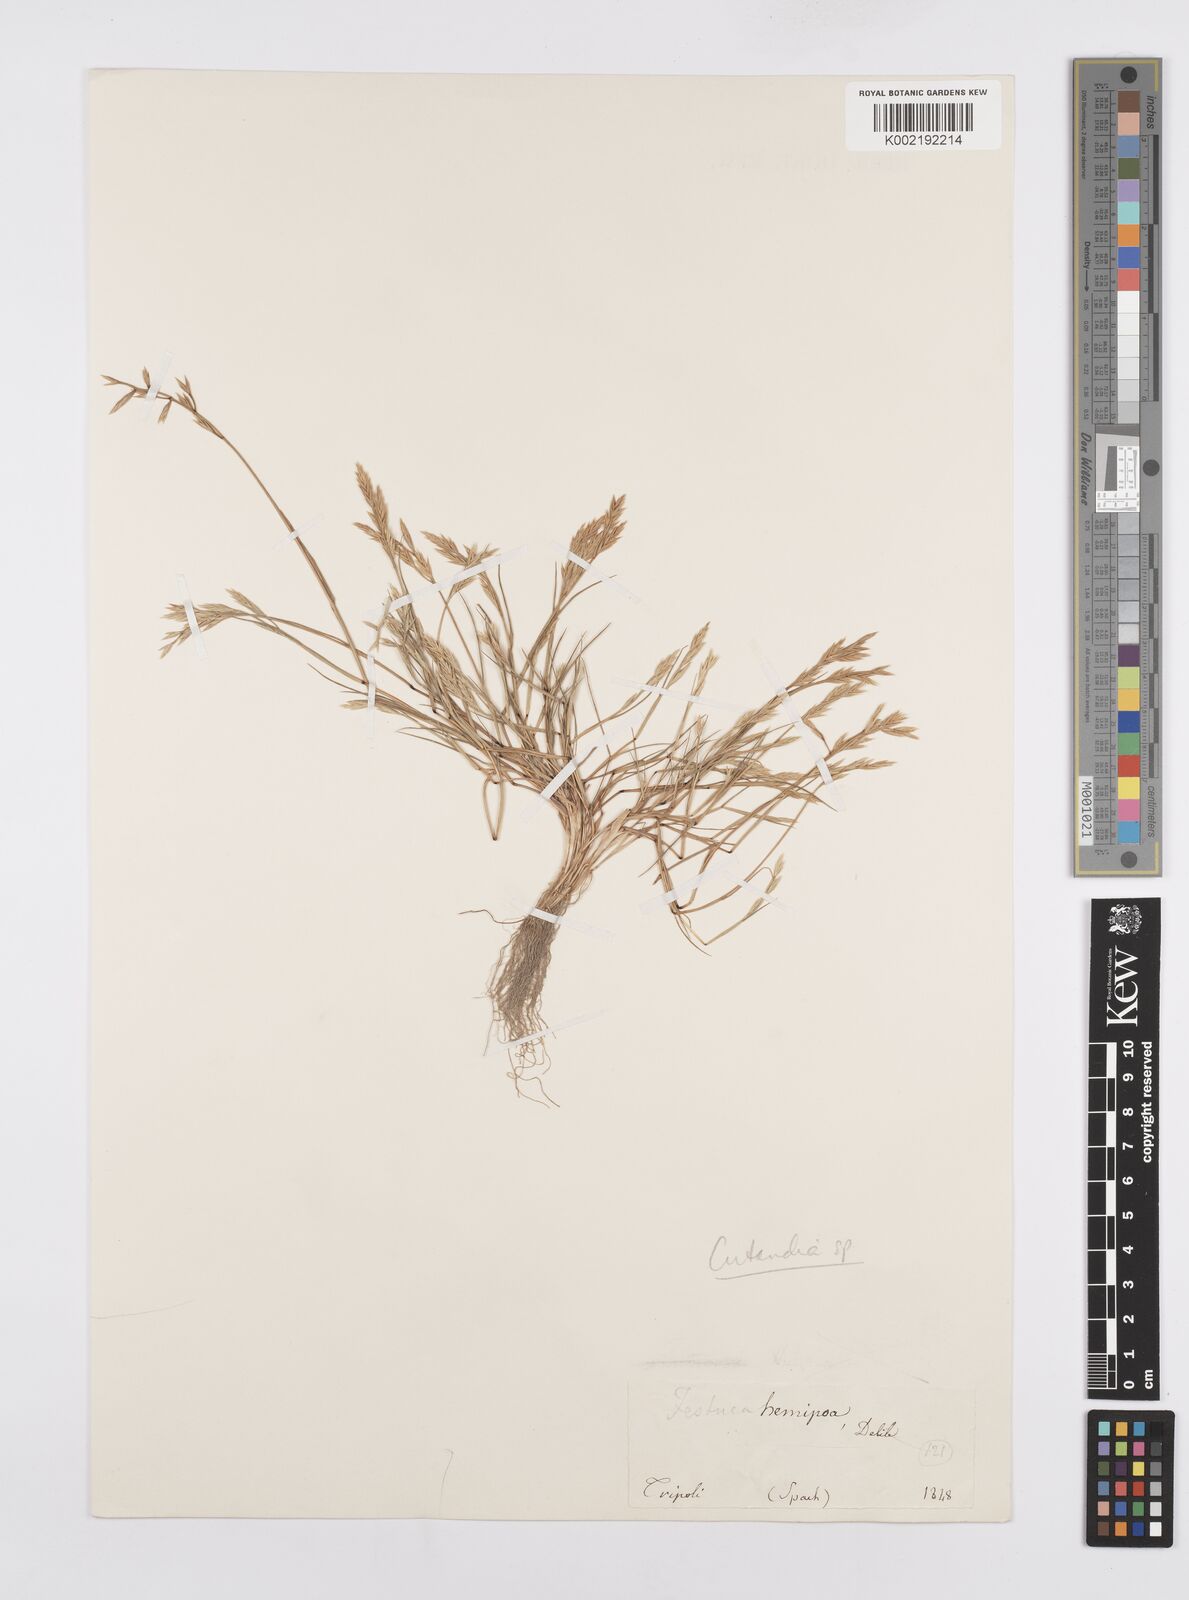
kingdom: Plantae
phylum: Tracheophyta
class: Liliopsida
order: Poales
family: Poaceae
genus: Cutandia
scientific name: Cutandia maritima
